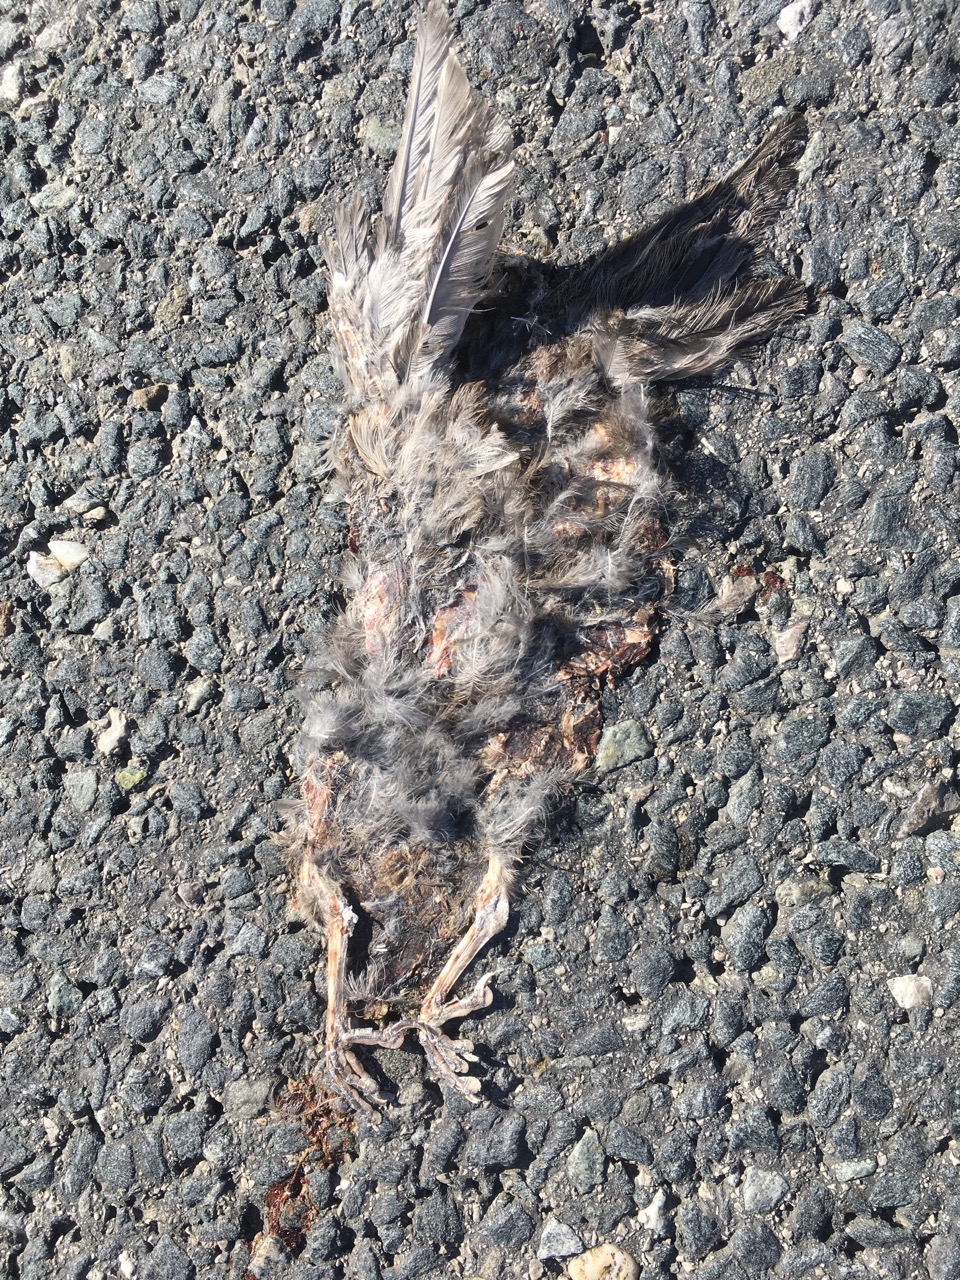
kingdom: Animalia
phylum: Chordata
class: Aves
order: Passeriformes
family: Turdidae
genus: Turdus
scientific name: Turdus merula
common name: Common blackbird
